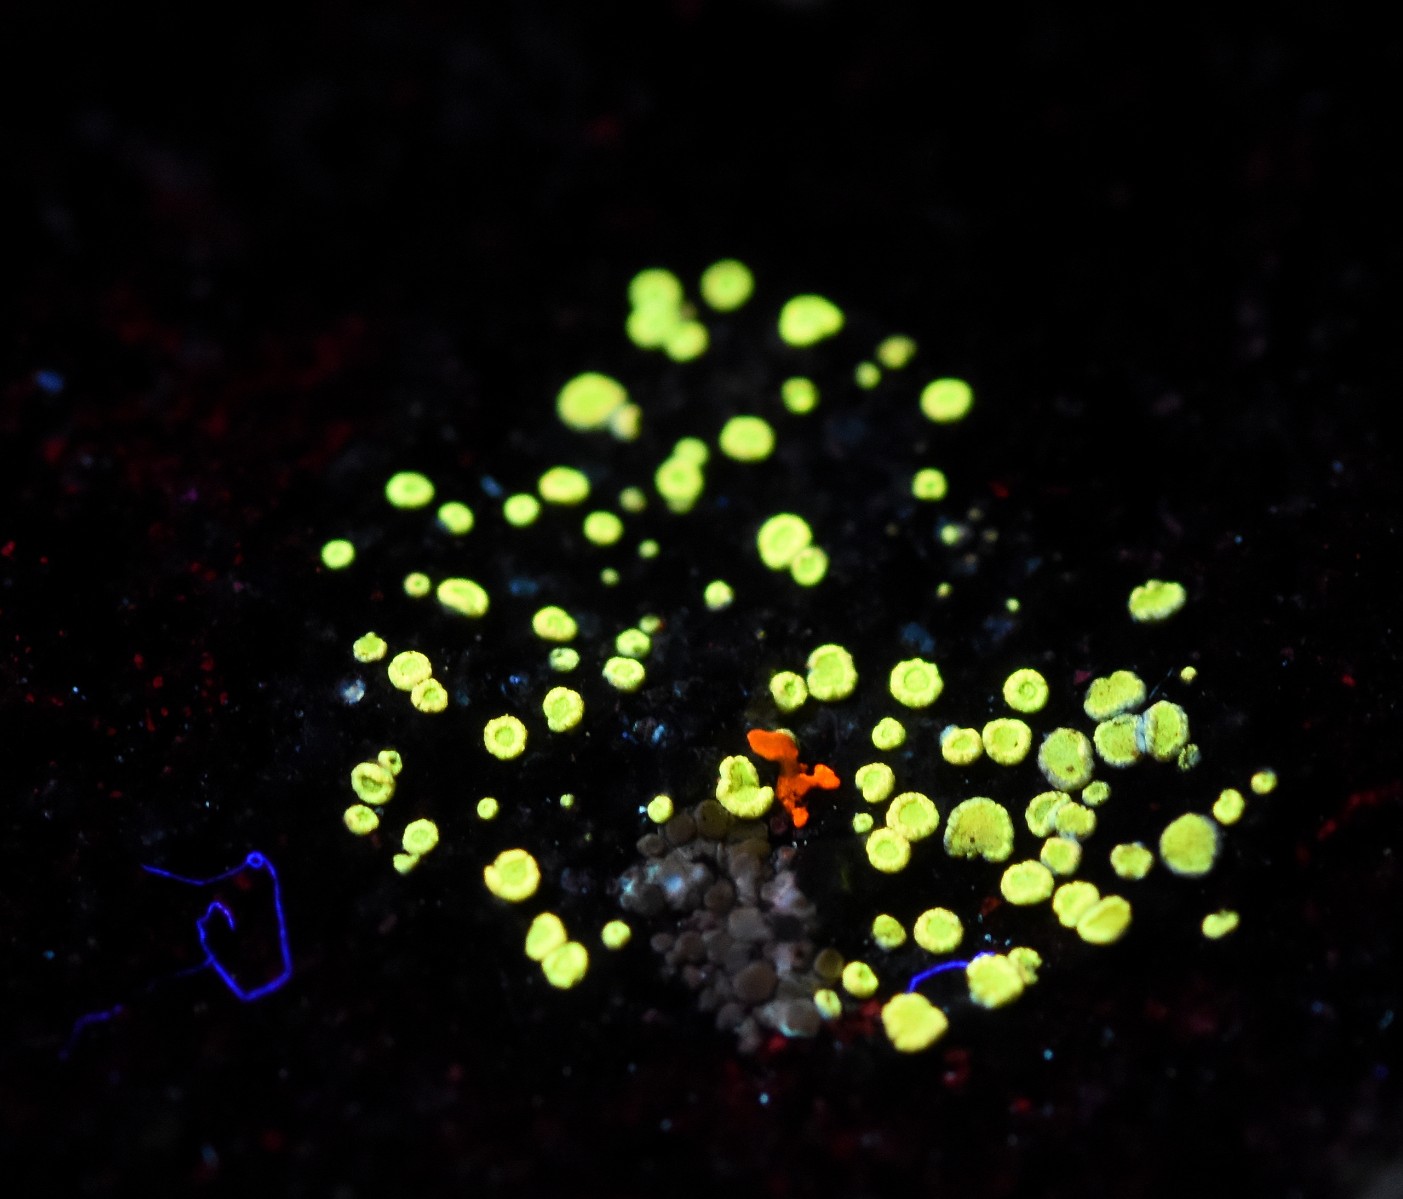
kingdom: Fungi
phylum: Ascomycota
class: Lecanoromycetes
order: Lecanorales
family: Lecanoraceae
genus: Polyozosia
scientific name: Polyozosia semipallida
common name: vinetorin-kantskivelav
